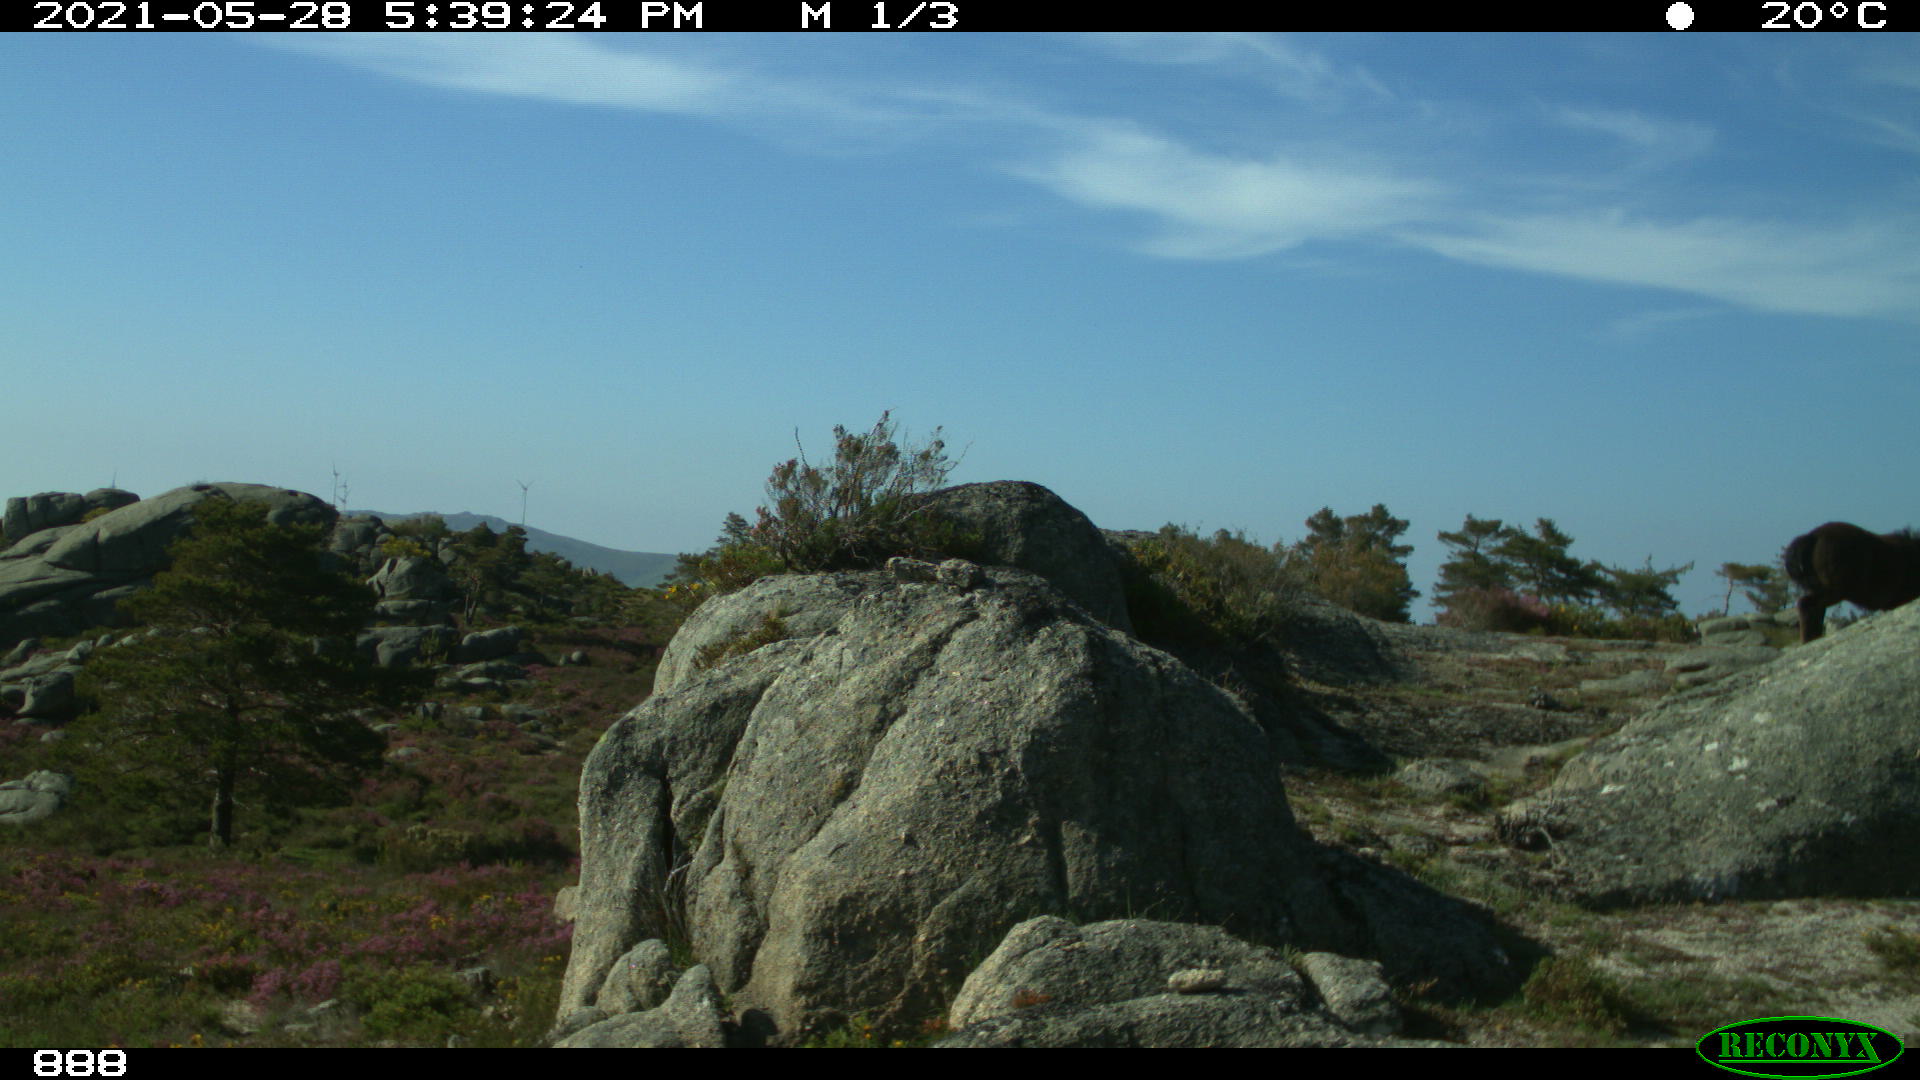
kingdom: Animalia
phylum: Chordata
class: Mammalia
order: Perissodactyla
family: Equidae
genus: Equus
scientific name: Equus caballus
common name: Horse
